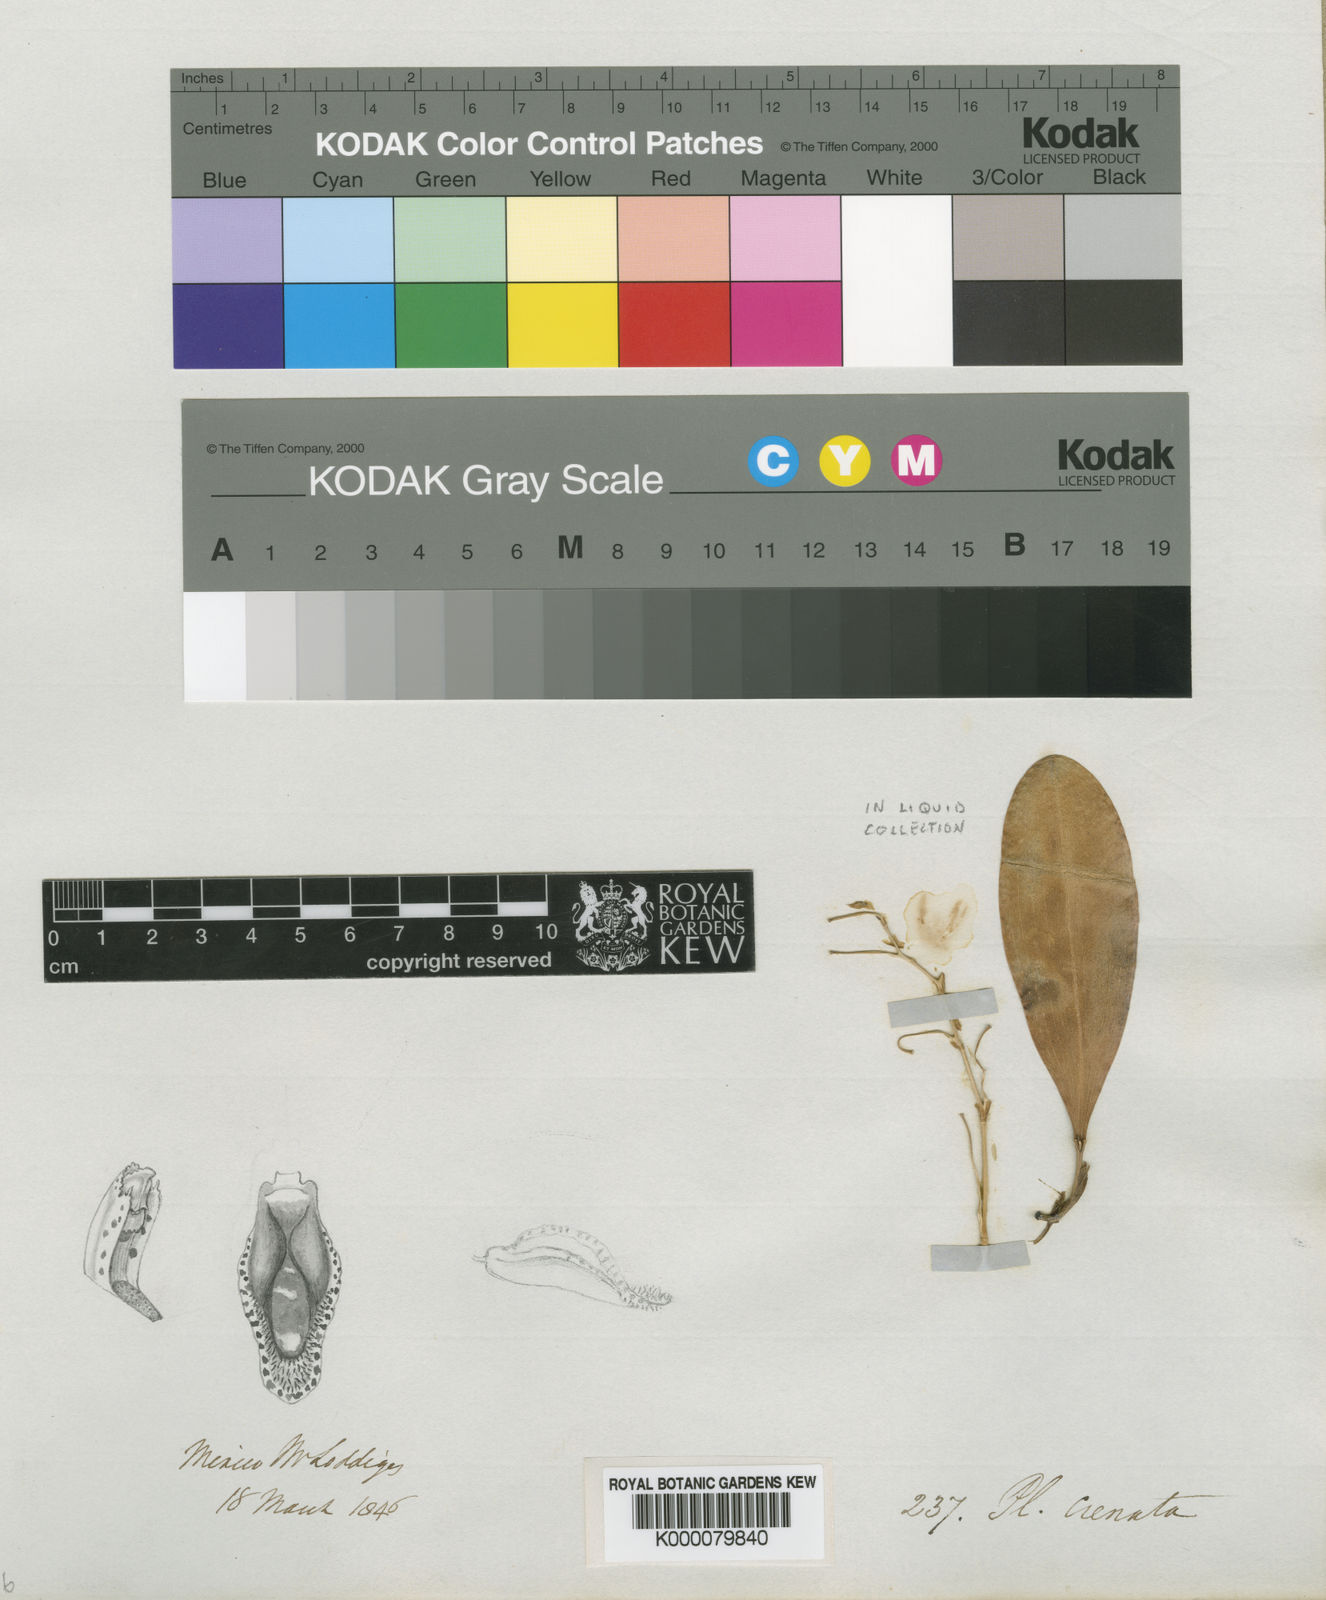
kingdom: Plantae
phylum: Tracheophyta
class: Liliopsida
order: Asparagales
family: Orchidaceae
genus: Stelis
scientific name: Stelis crenata
